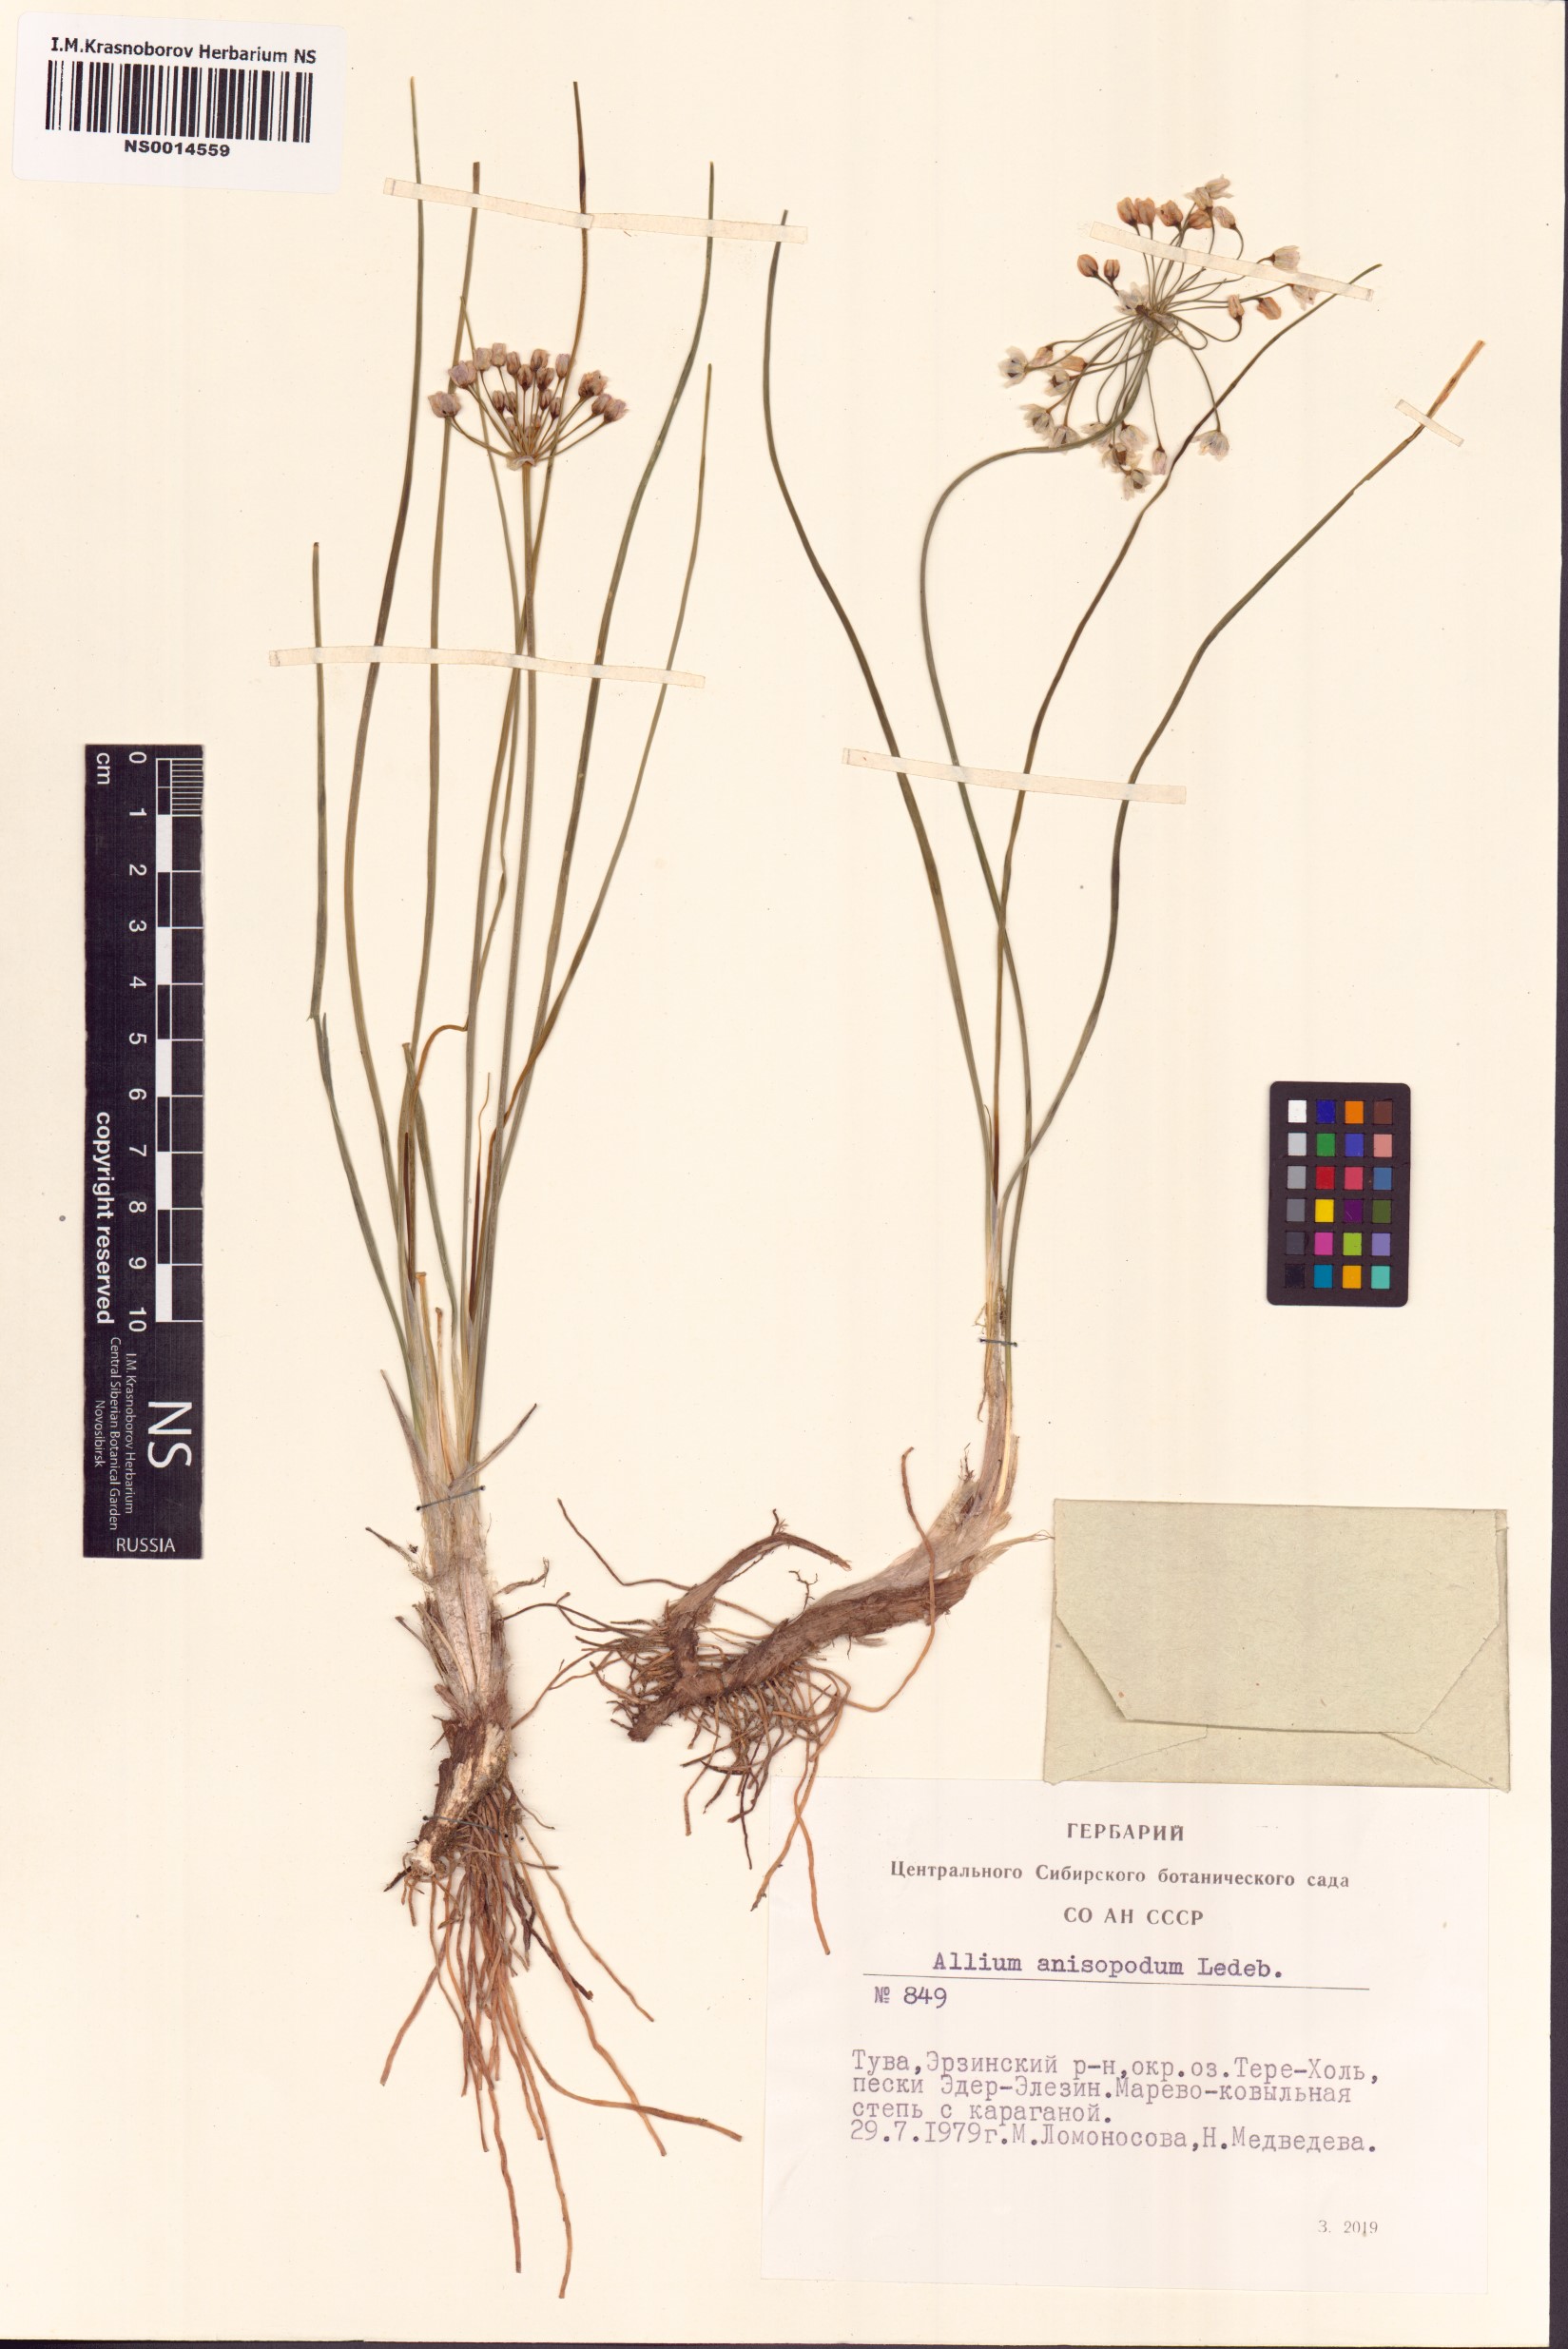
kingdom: Plantae
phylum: Tracheophyta
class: Liliopsida
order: Asparagales
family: Amaryllidaceae
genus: Allium
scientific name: Allium anisopodium
